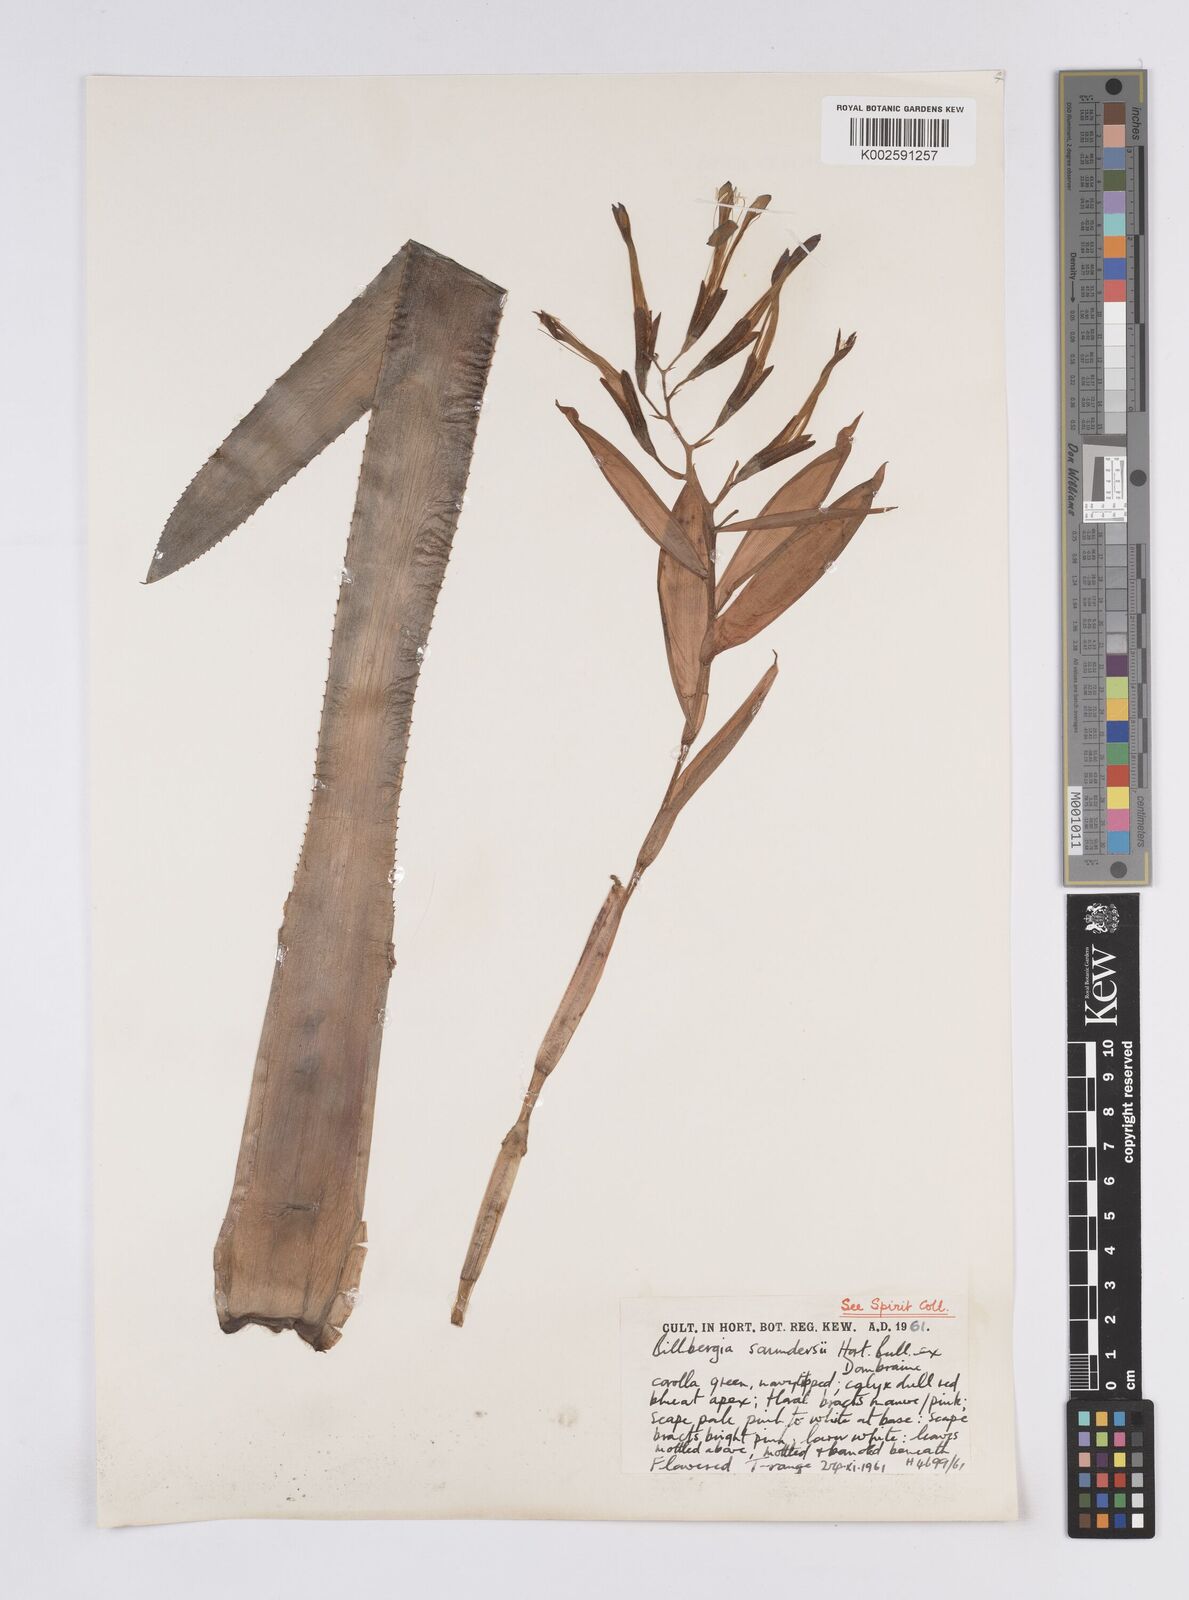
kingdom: Plantae
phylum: Tracheophyta
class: Liliopsida
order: Poales
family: Bromeliaceae
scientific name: Bromeliaceae
